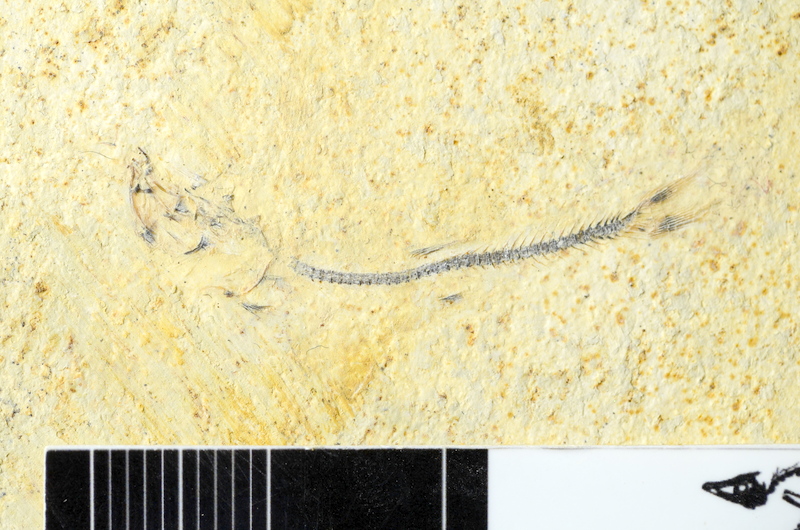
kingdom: Animalia
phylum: Chordata
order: Salmoniformes
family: Orthogonikleithridae
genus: Orthogonikleithrus
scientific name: Orthogonikleithrus hoelli
